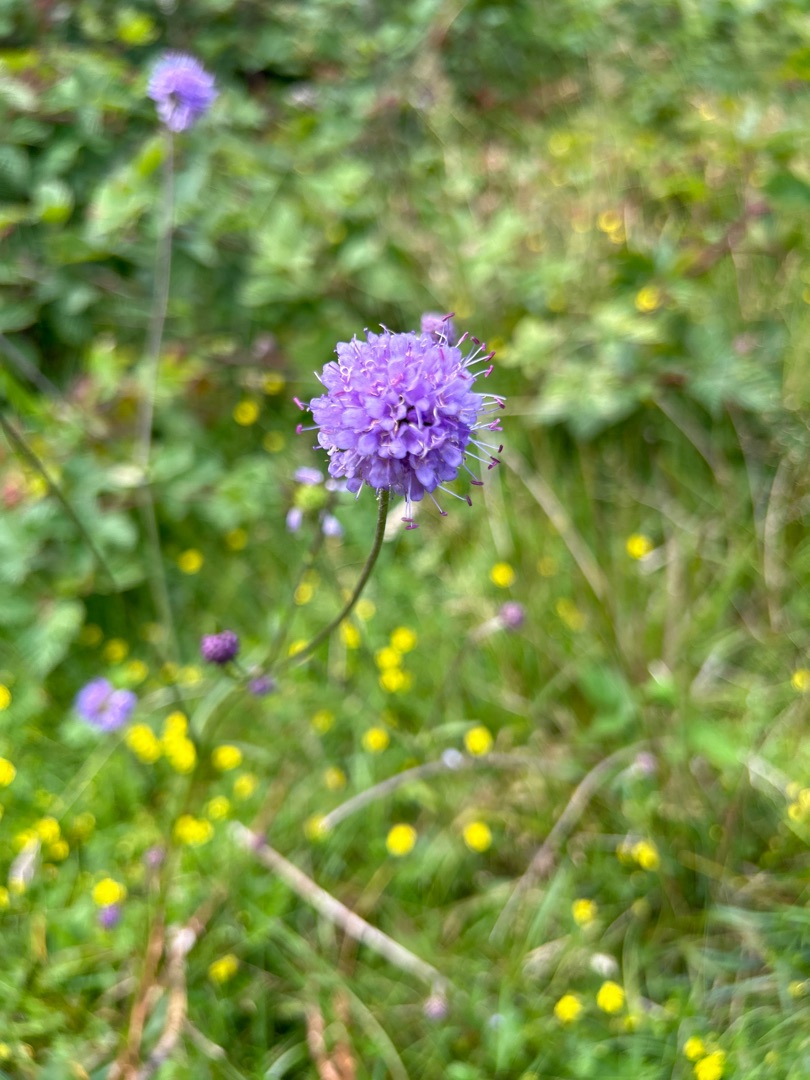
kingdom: Plantae
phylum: Tracheophyta
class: Magnoliopsida
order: Dipsacales
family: Caprifoliaceae
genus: Succisa
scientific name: Succisa pratensis
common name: Djævelsbid
